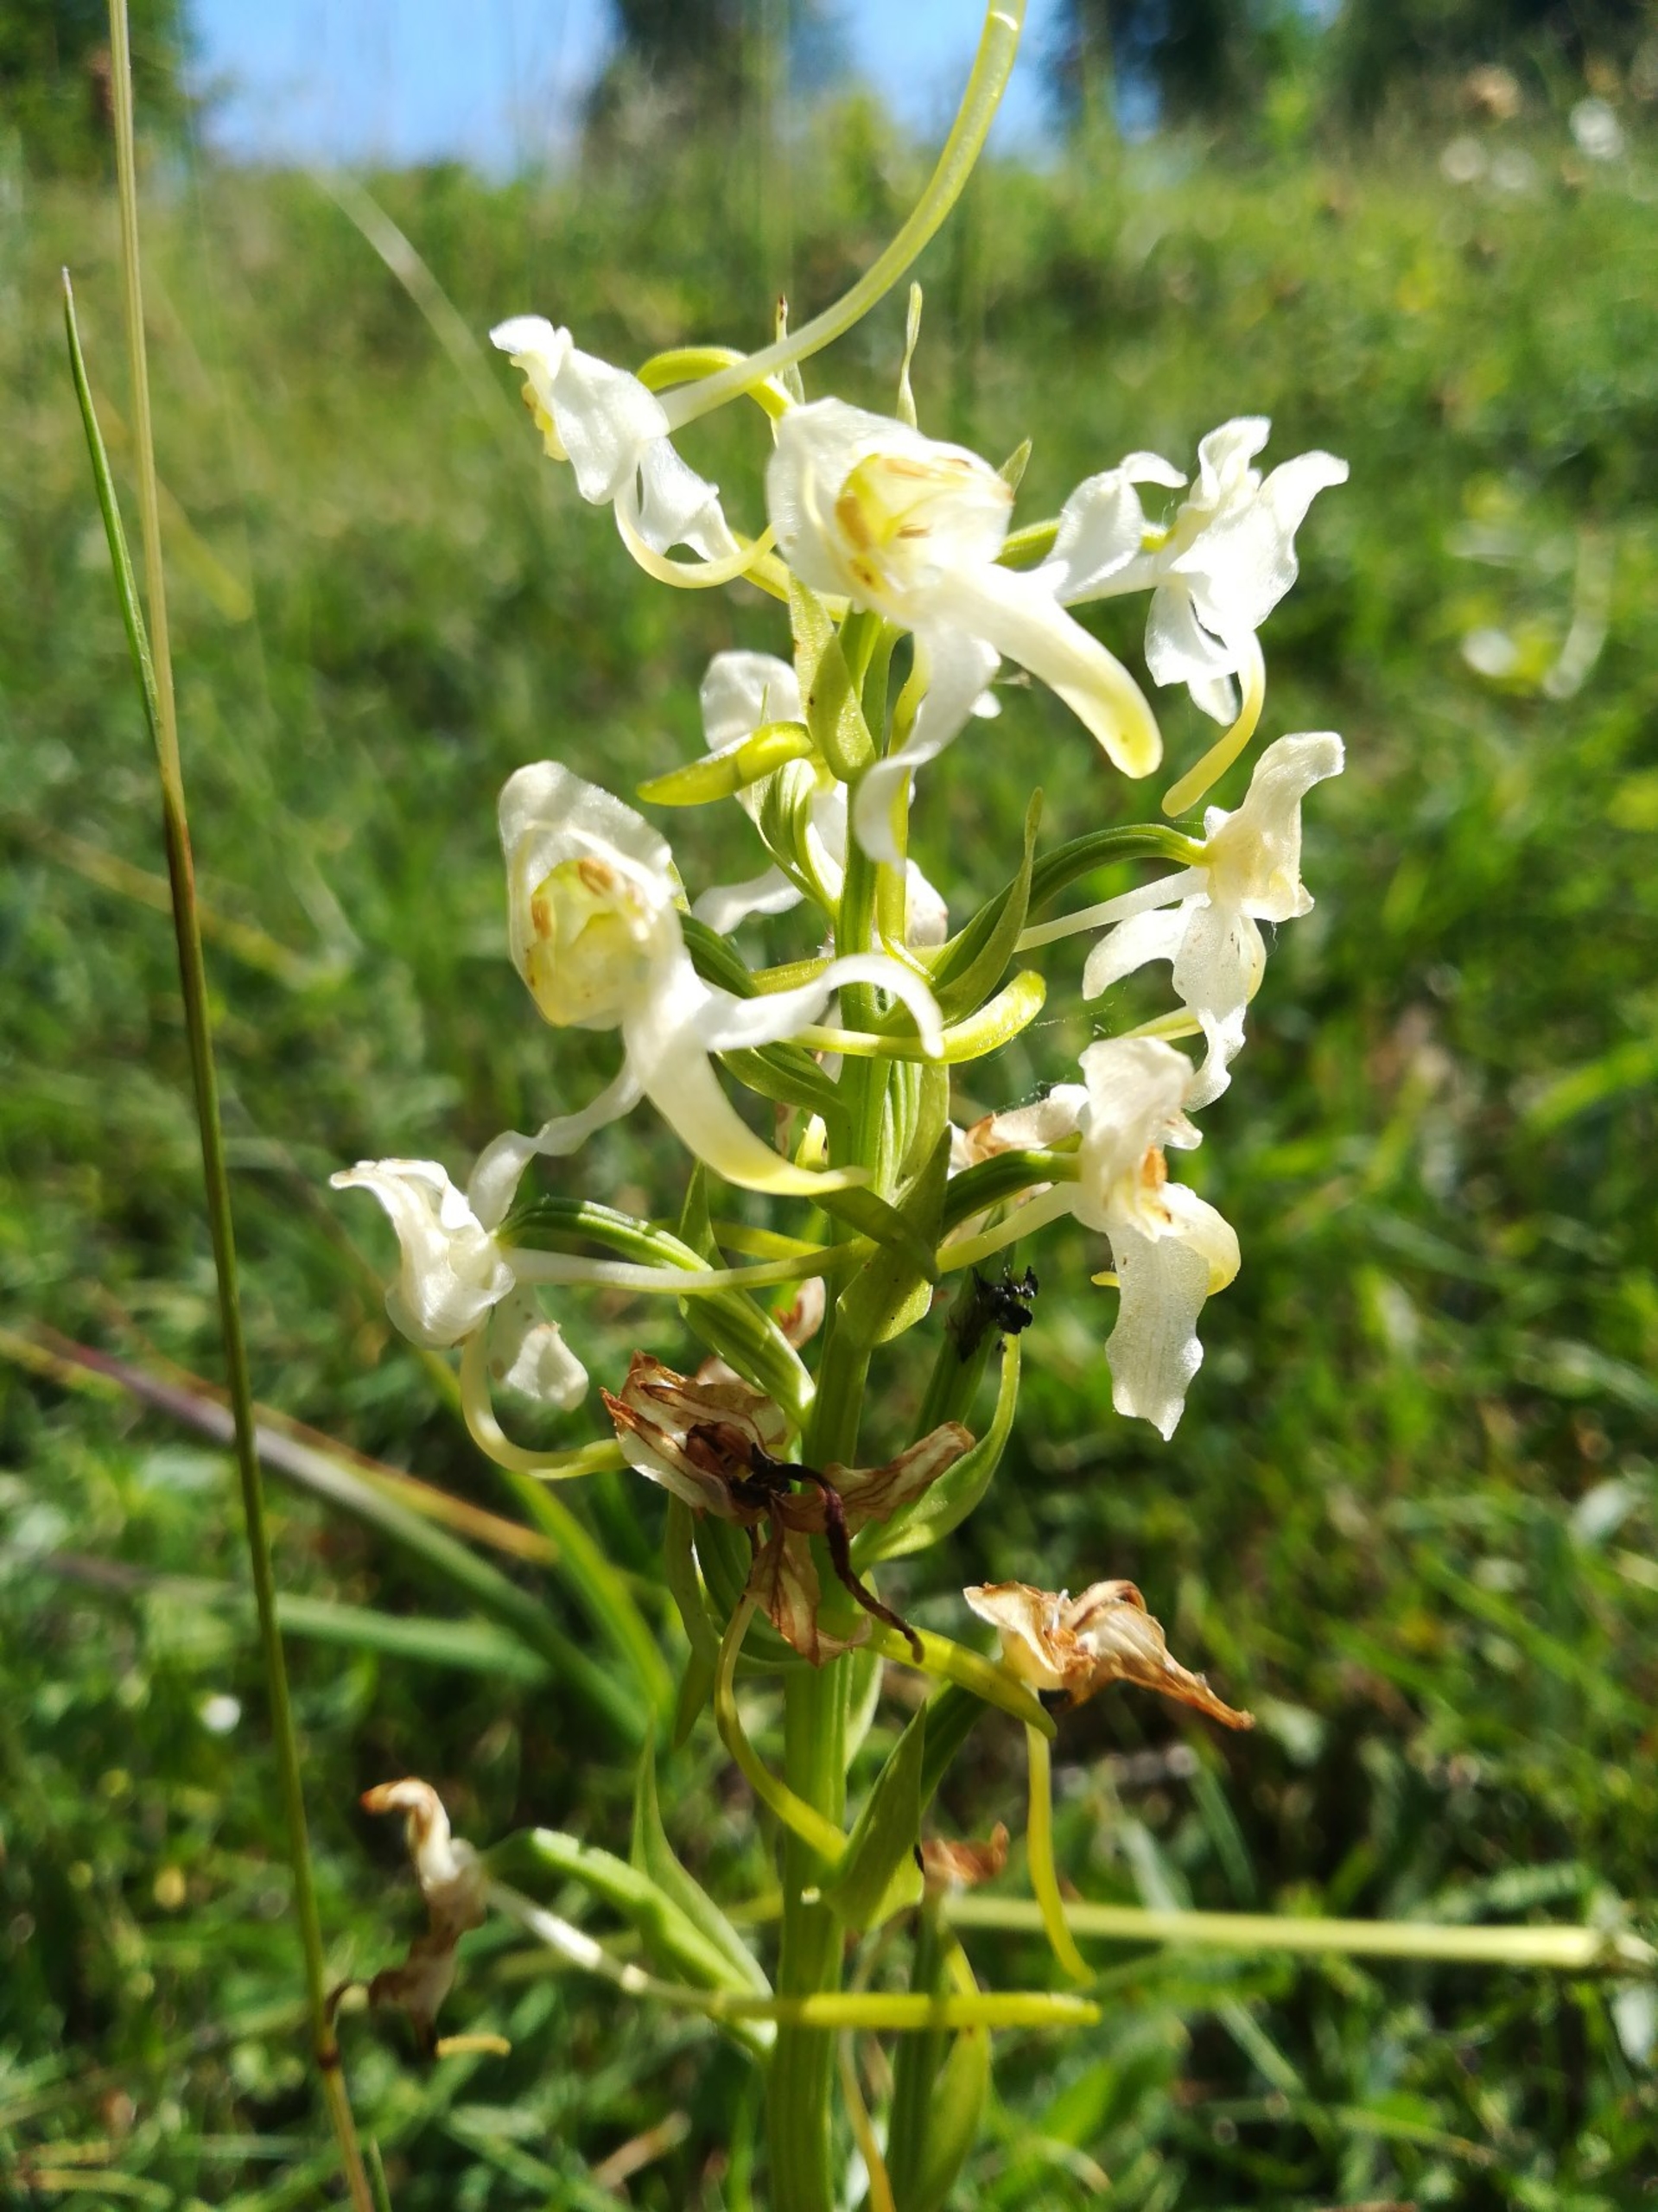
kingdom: Plantae
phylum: Tracheophyta
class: Liliopsida
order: Asparagales
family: Orchidaceae
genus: Platanthera
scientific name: Platanthera chlorantha
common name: Skov-gøgelilje
